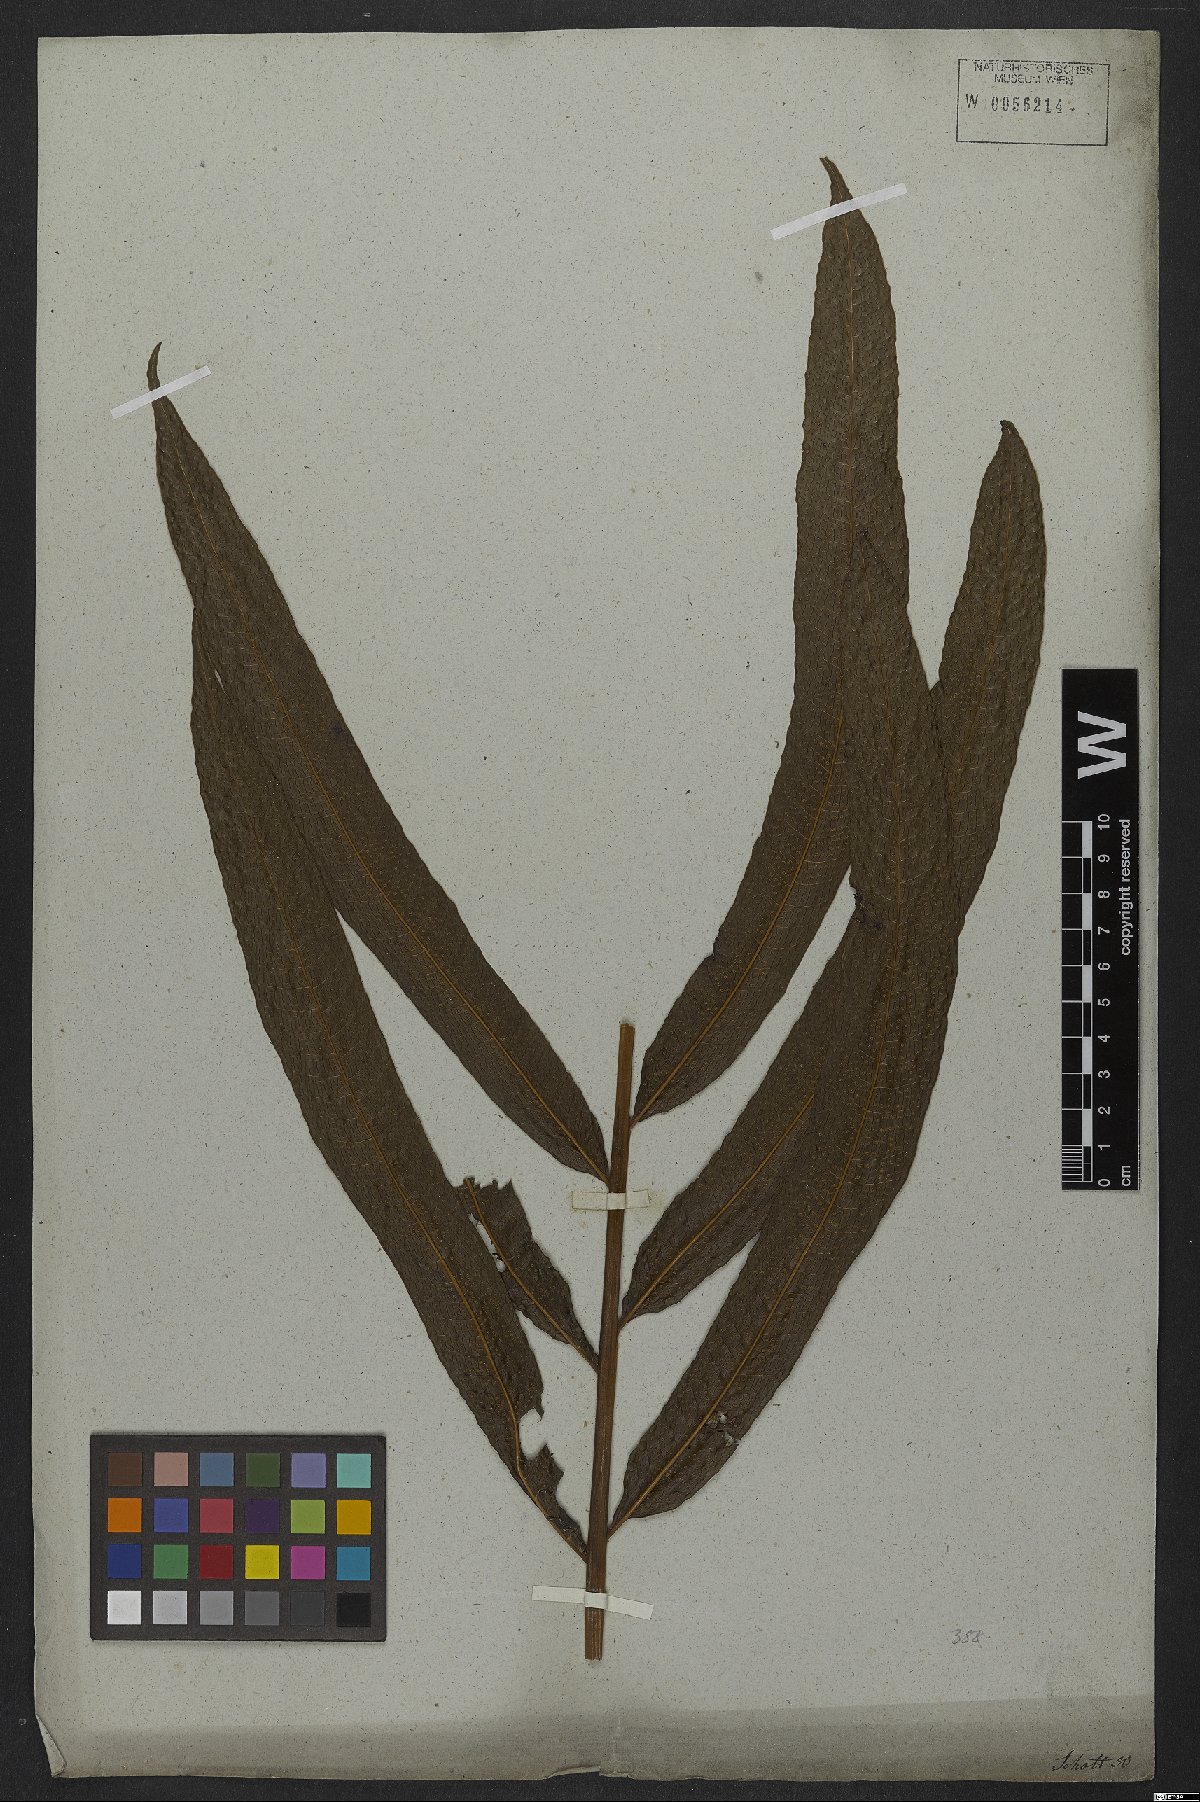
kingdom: Plantae
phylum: Tracheophyta
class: Polypodiopsida
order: Polypodiales
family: Polypodiaceae
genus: Campyloneurum
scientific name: Campyloneurum decurrens
